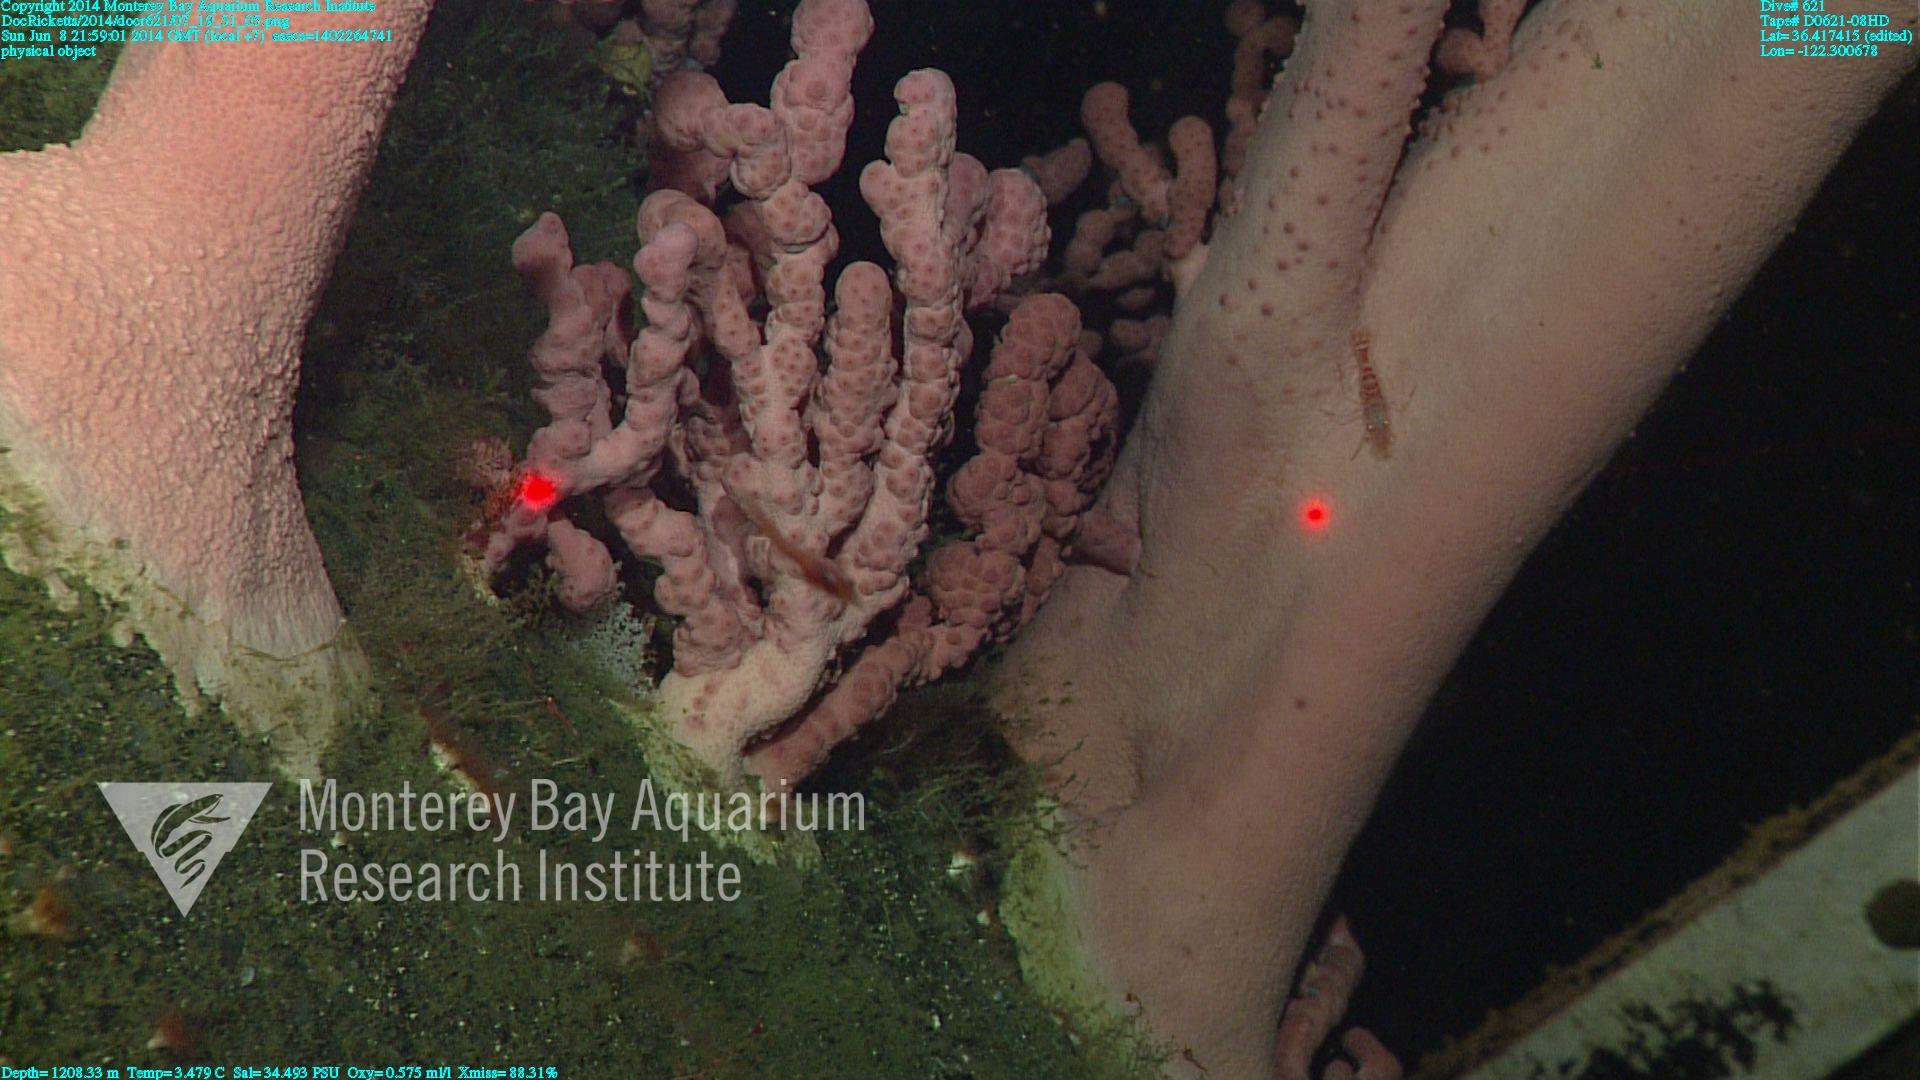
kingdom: Animalia
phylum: Cnidaria
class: Anthozoa
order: Scleralcyonacea
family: Coralliidae
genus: Paragorgia
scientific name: Paragorgia arborea
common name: Bubble gum coral
